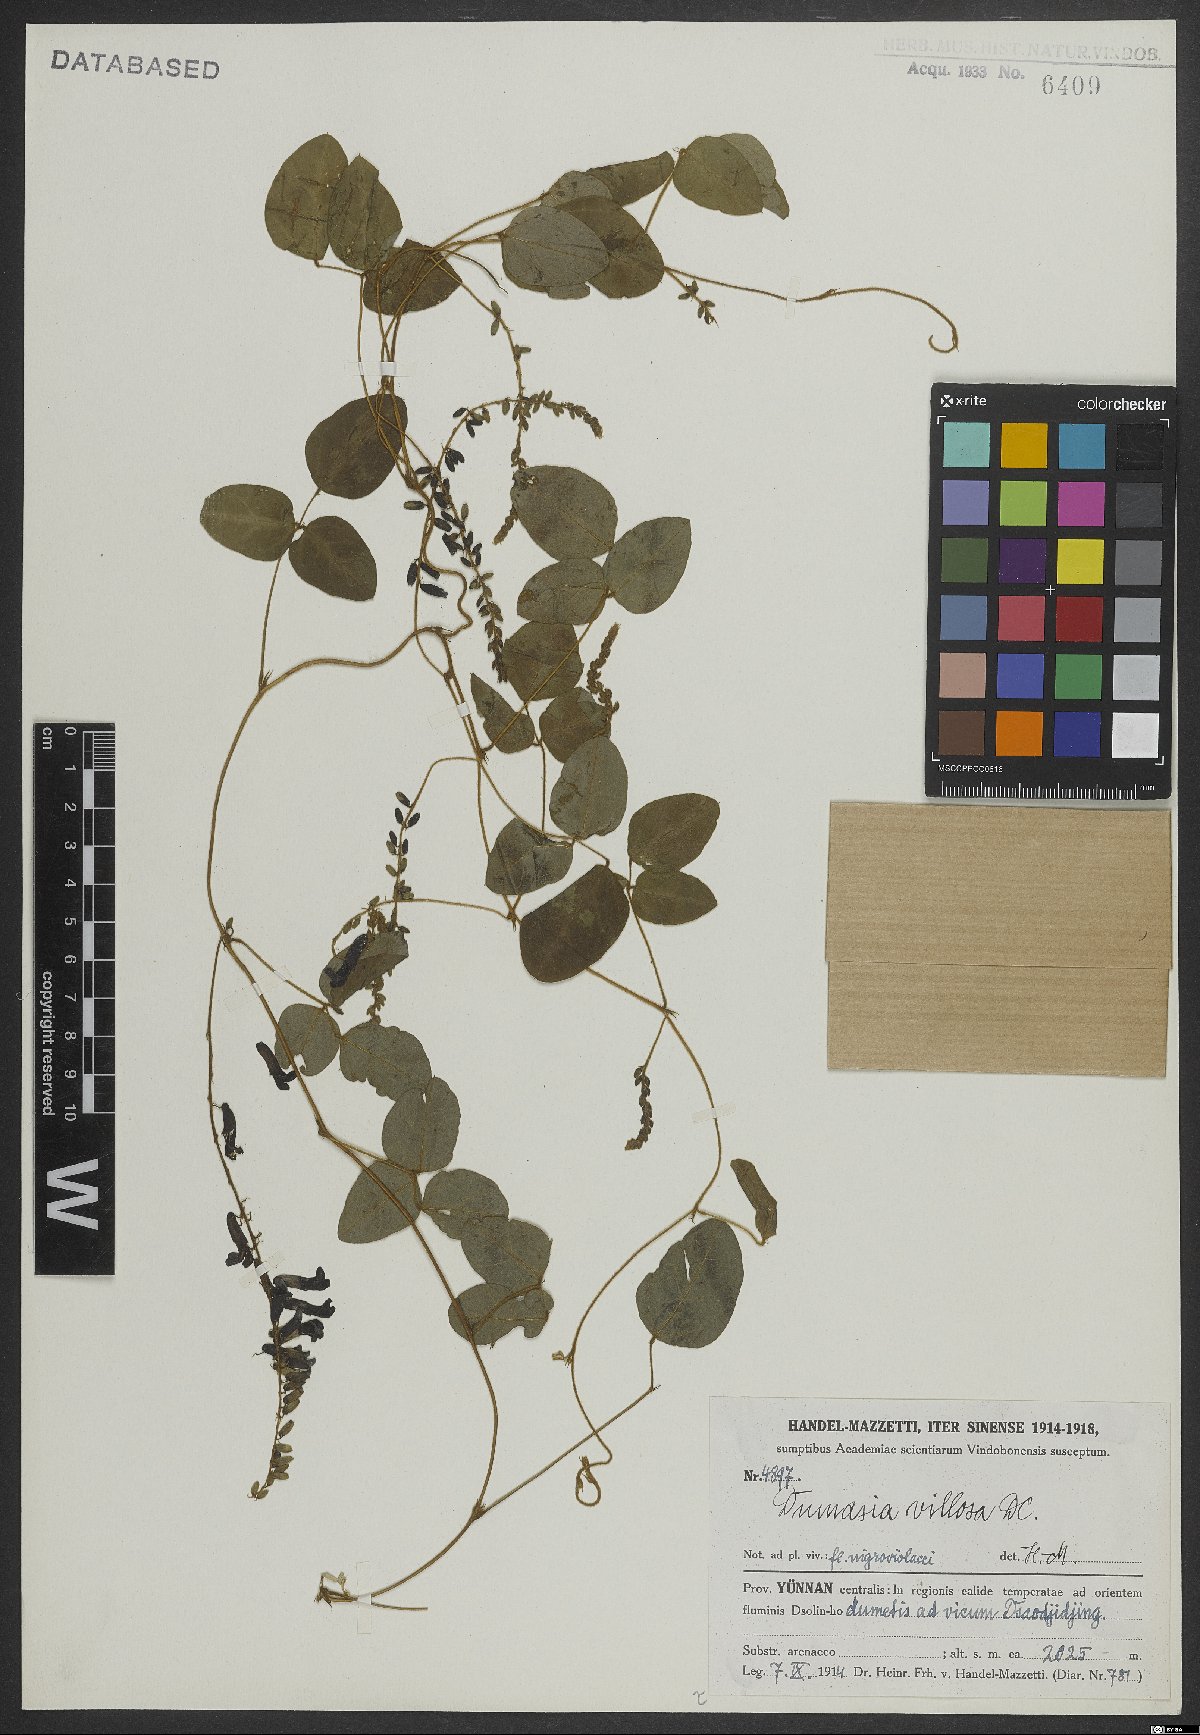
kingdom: Plantae
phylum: Tracheophyta
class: Magnoliopsida
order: Fabales
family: Fabaceae
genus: Dumasia
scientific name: Dumasia villosa
